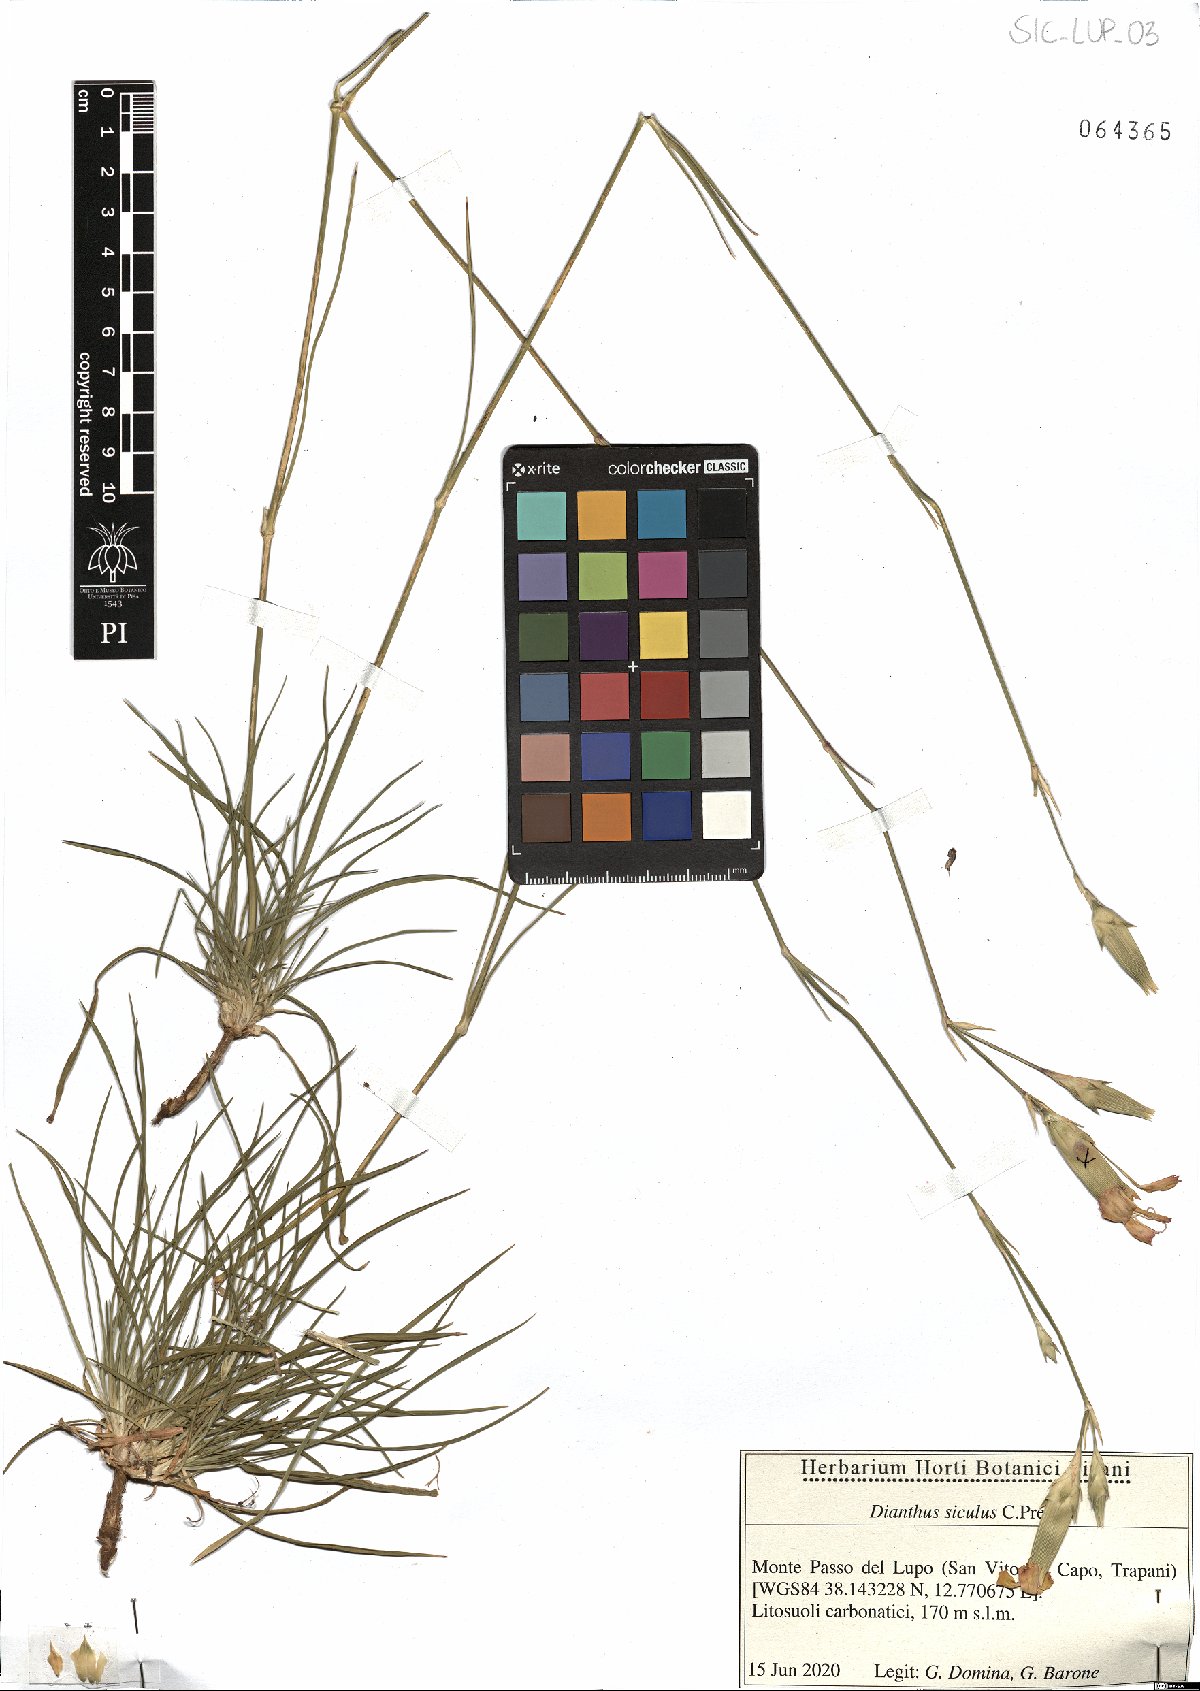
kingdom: Plantae
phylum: Tracheophyta
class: Magnoliopsida
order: Caryophyllales
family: Caryophyllaceae
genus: Dianthus
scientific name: Dianthus siculus
